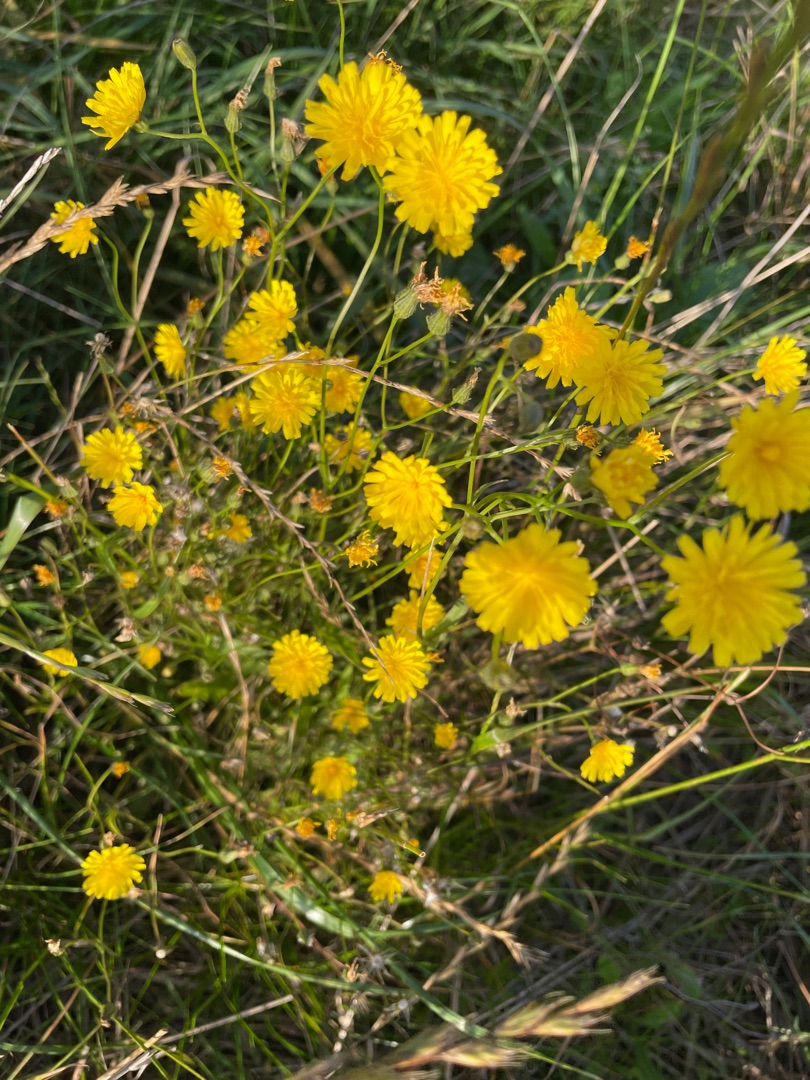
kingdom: Plantae
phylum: Tracheophyta
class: Magnoliopsida
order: Asterales
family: Asteraceae
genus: Crepis
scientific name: Crepis capillaris
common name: Grøn høgeskæg
